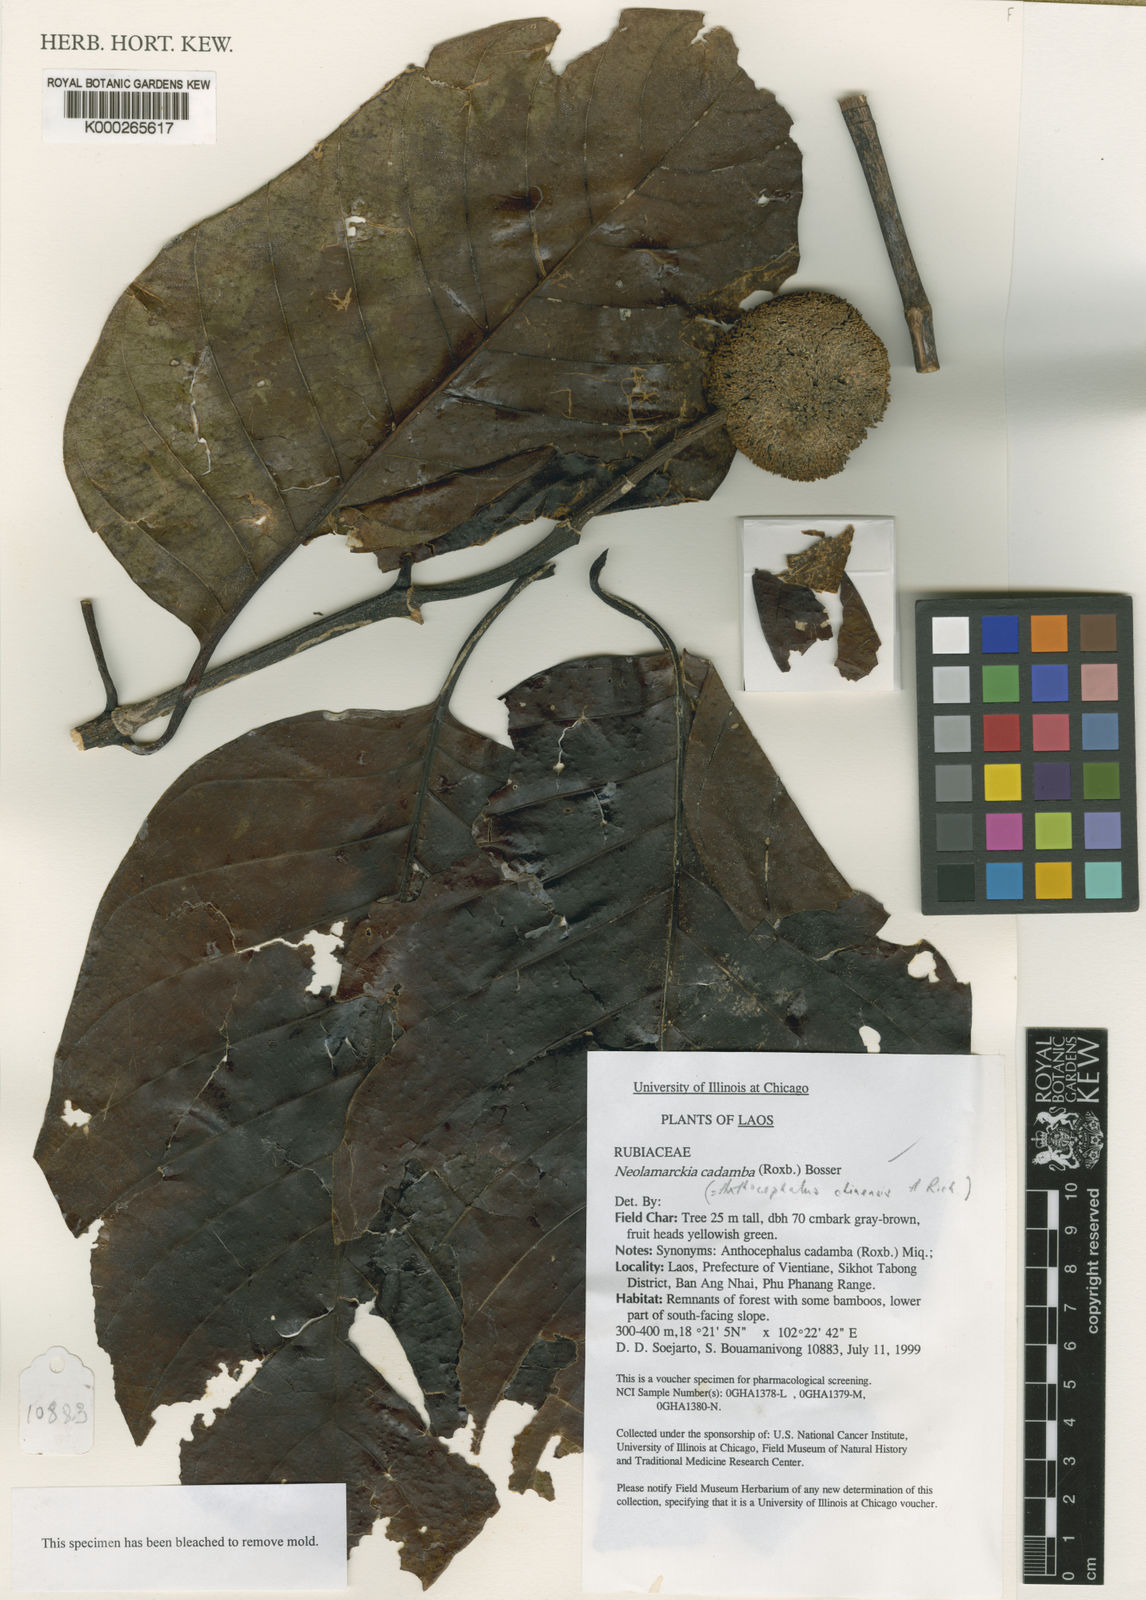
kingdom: Plantae
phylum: Tracheophyta
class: Magnoliopsida
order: Gentianales
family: Rubiaceae
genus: Neolamarckia
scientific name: Neolamarckia cadamba
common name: Leichhardt-pine
